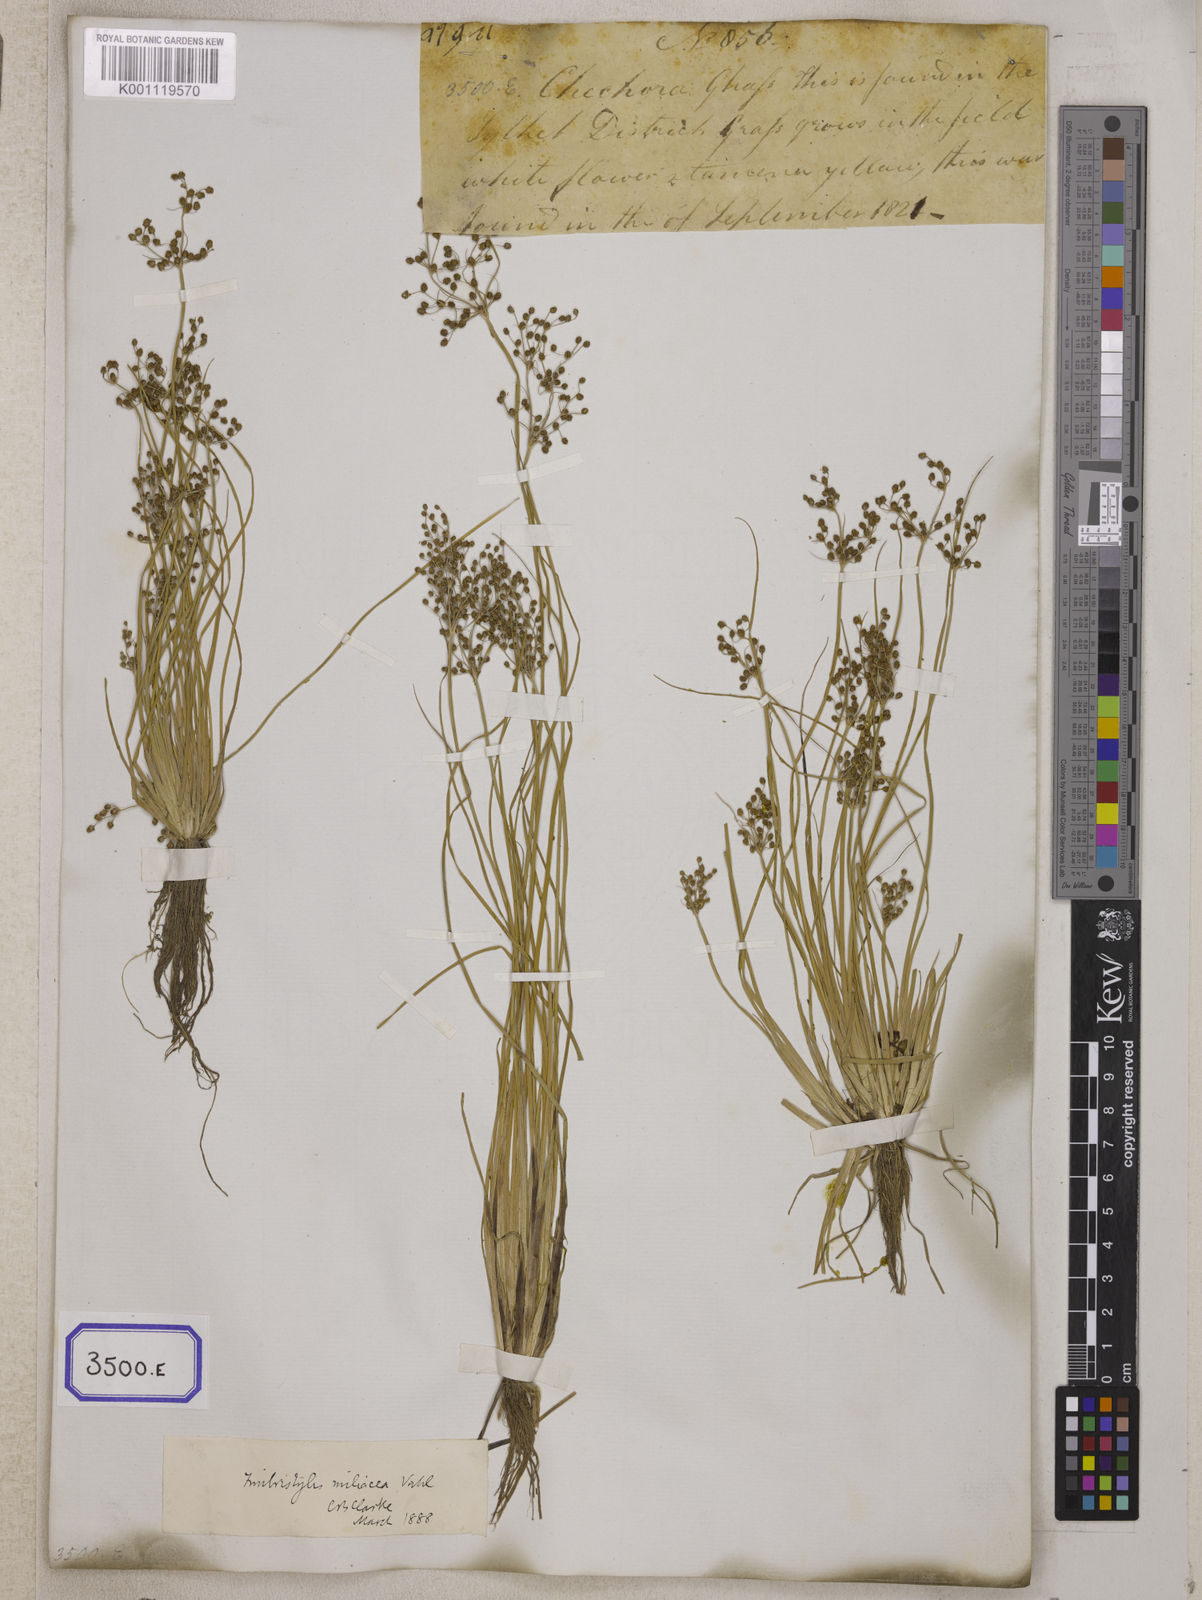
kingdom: Plantae
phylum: Tracheophyta
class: Liliopsida
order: Poales
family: Cyperaceae
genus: Fimbristylis
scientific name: Fimbristylis
